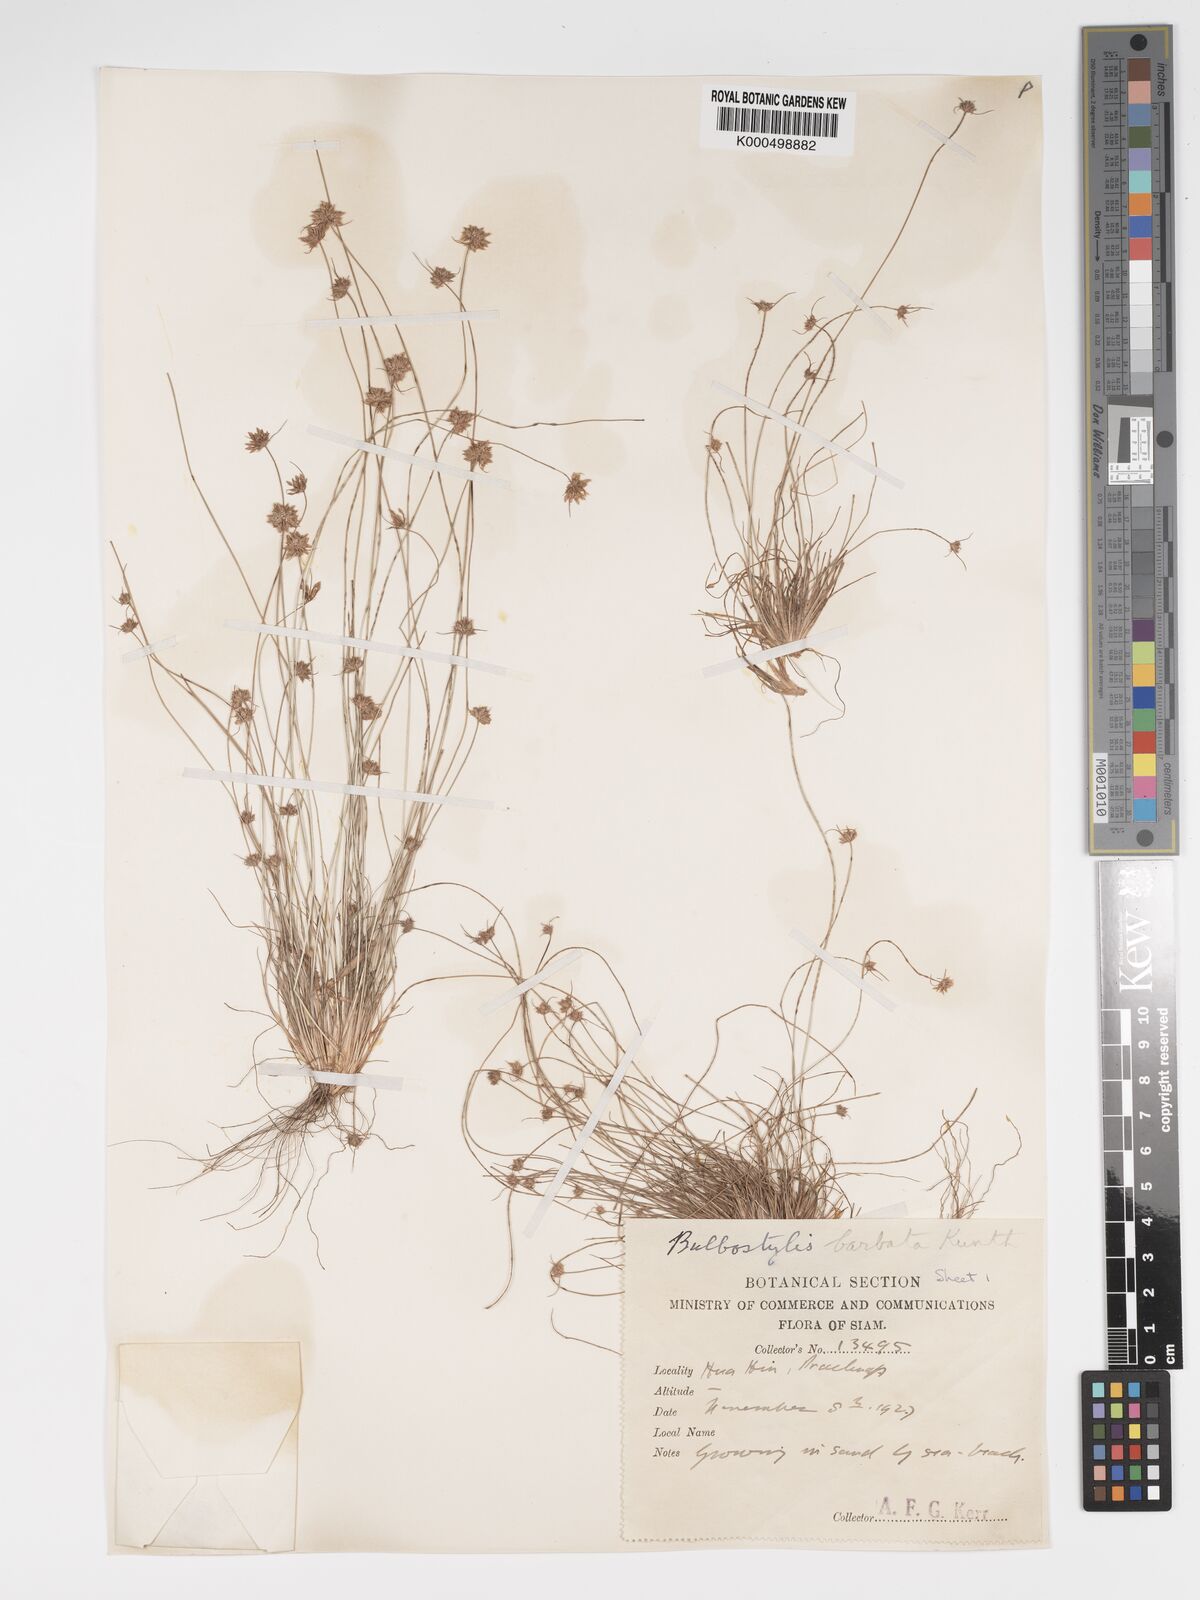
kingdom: Plantae
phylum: Tracheophyta
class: Liliopsida
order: Poales
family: Cyperaceae
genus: Bulbostylis
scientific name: Bulbostylis barbata
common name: Watergrass
